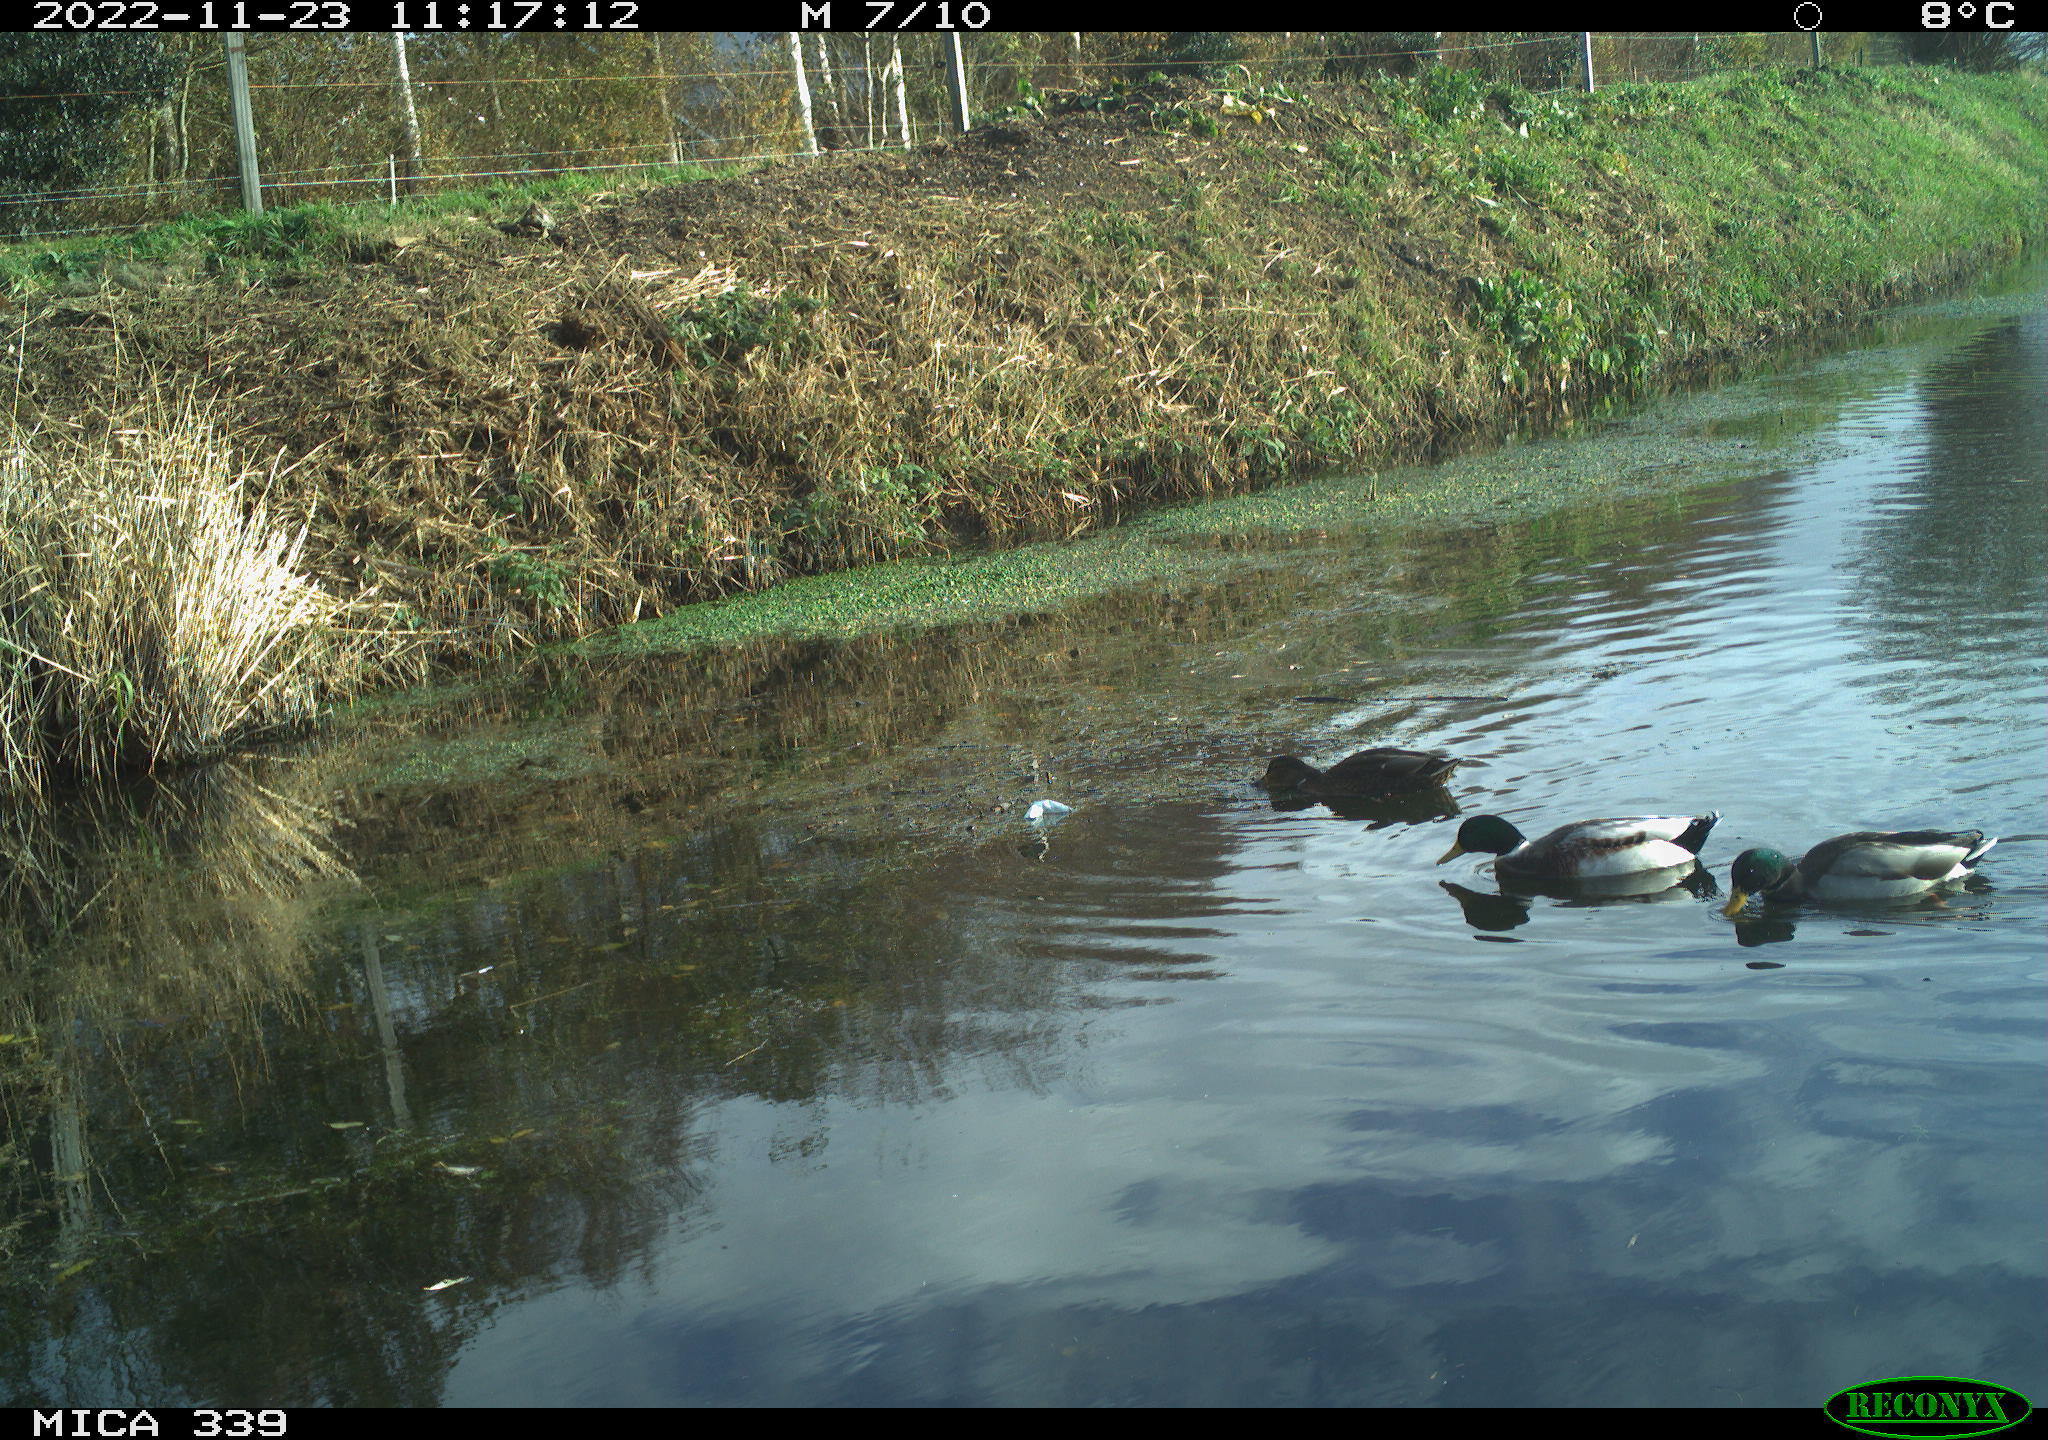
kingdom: Animalia
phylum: Chordata
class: Aves
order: Anseriformes
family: Anatidae
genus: Anas
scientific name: Anas platyrhynchos
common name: Mallard
